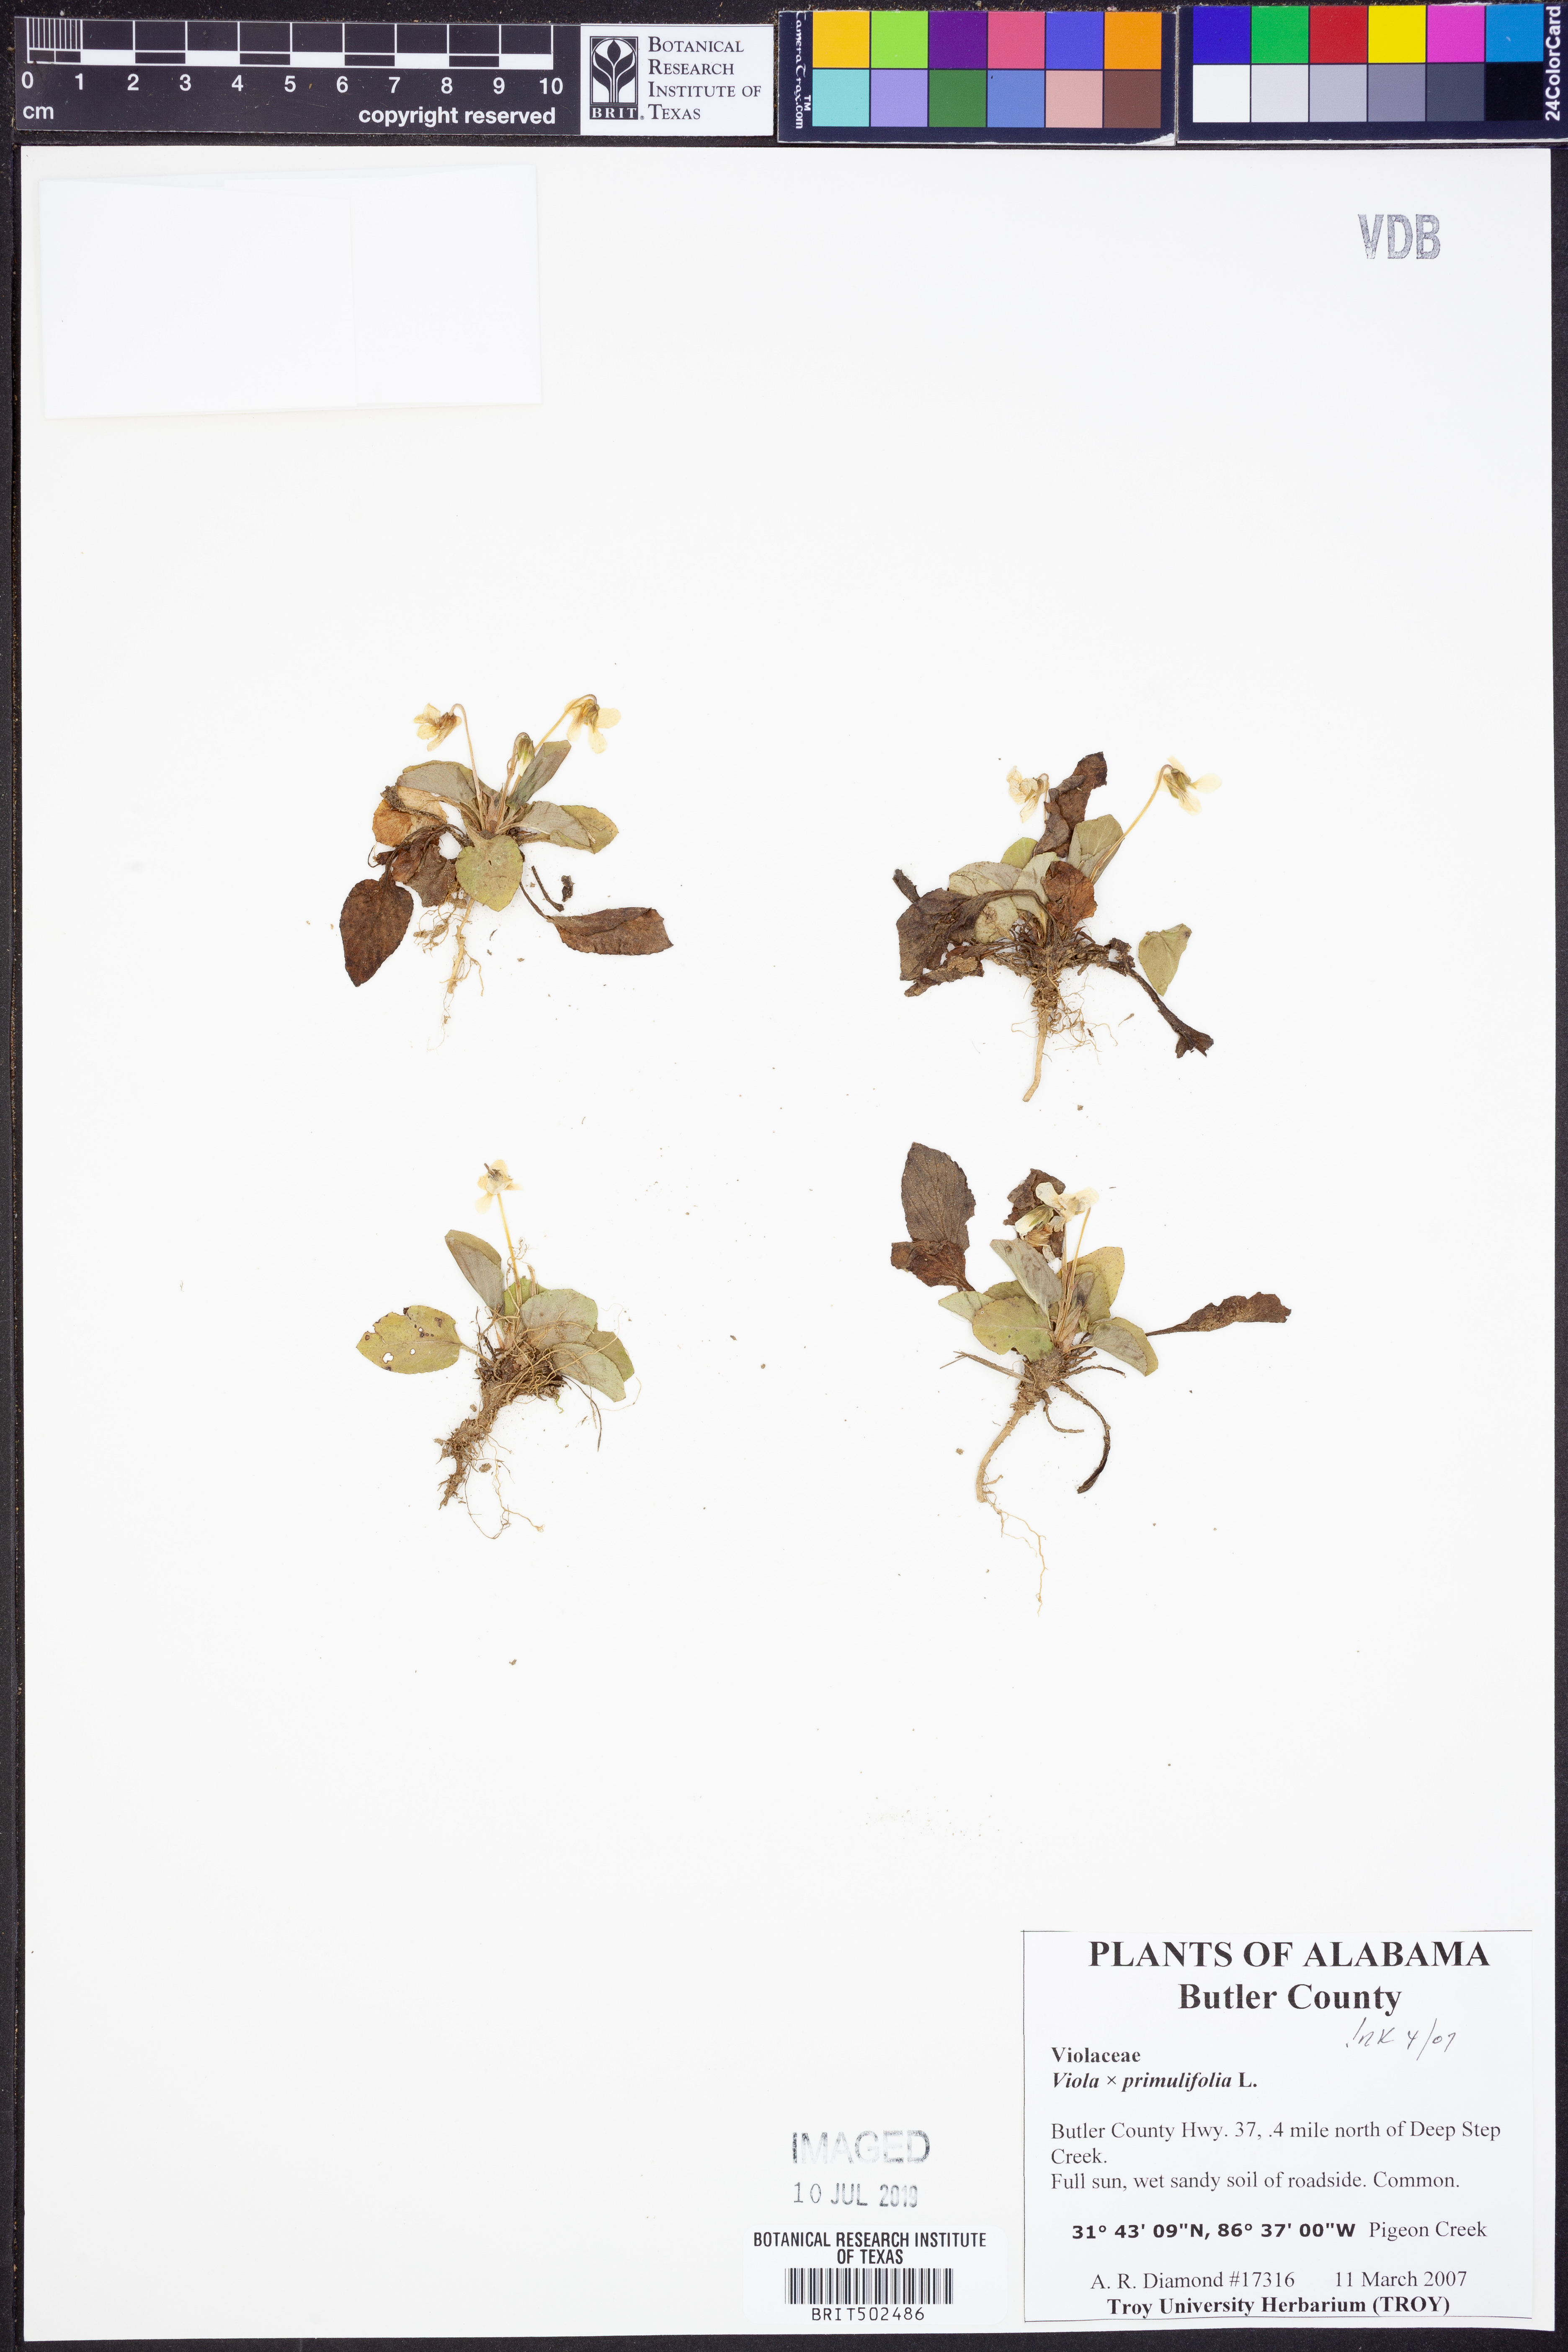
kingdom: Plantae
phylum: Tracheophyta
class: Magnoliopsida
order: Malpighiales
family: Violaceae
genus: Viola
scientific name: Viola
